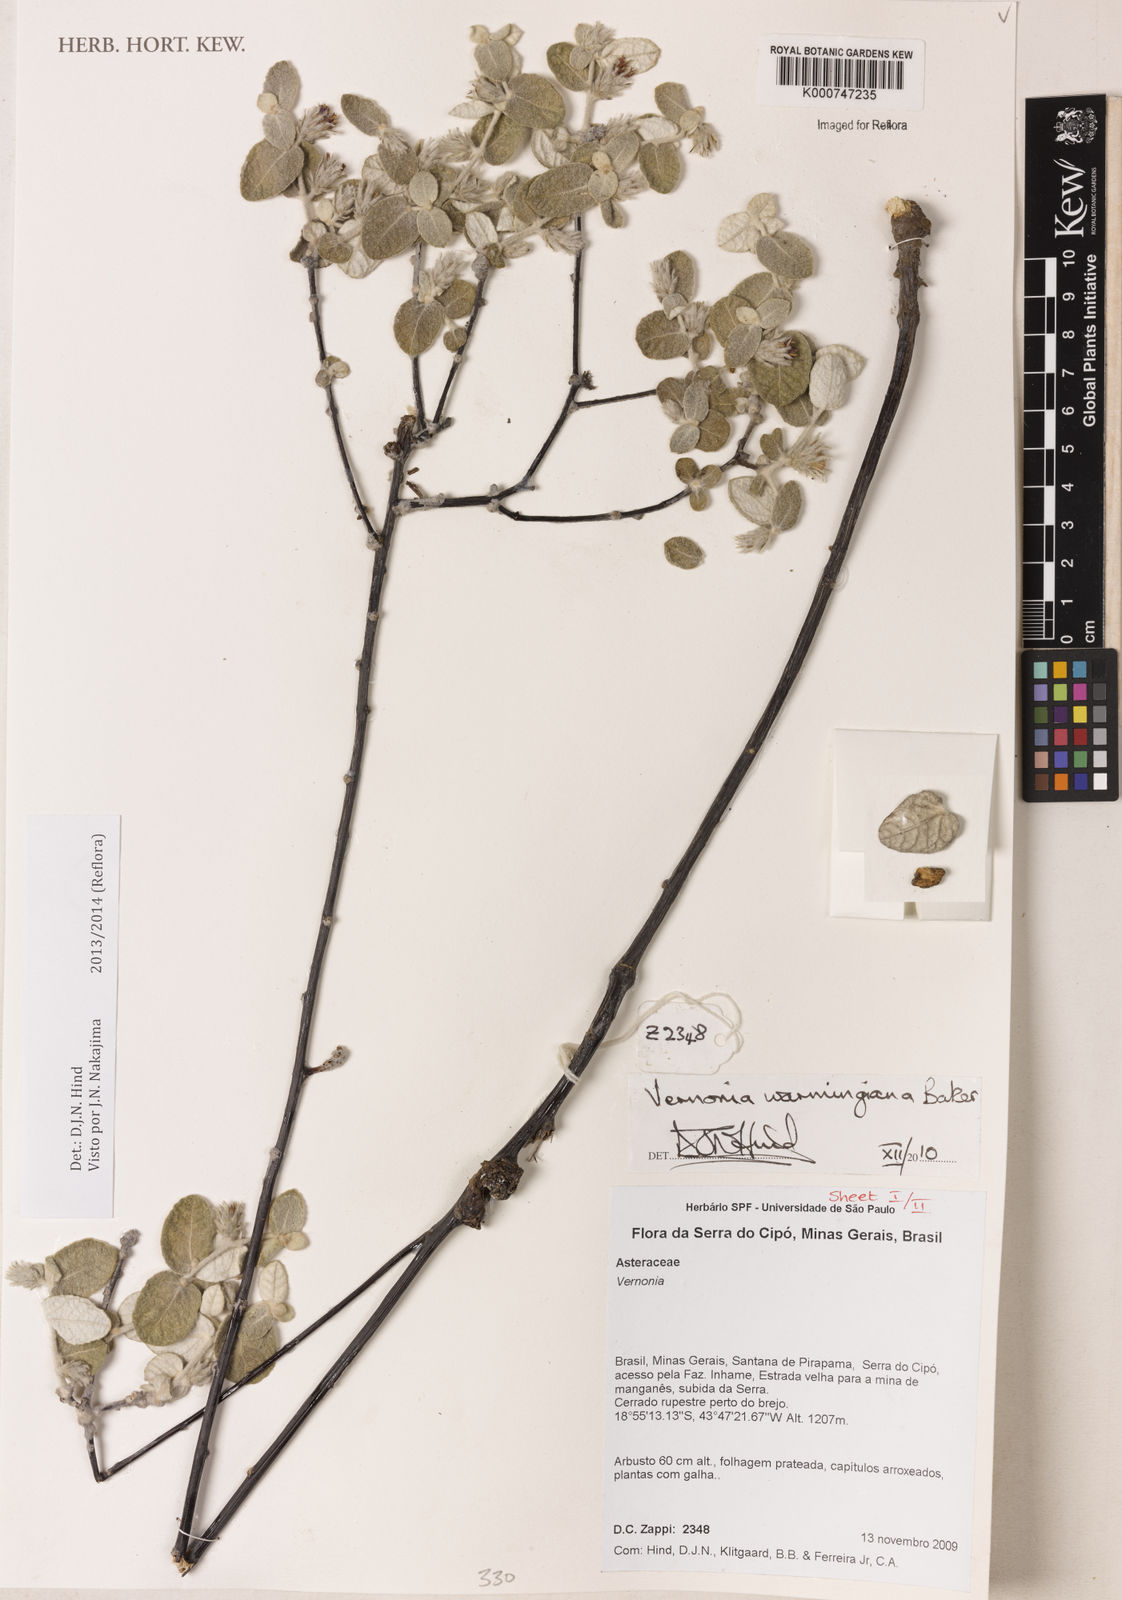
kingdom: Plantae
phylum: Tracheophyta
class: Magnoliopsida
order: Asterales
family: Asteraceae
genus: Lessingianthus
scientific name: Lessingianthus warmingianus
